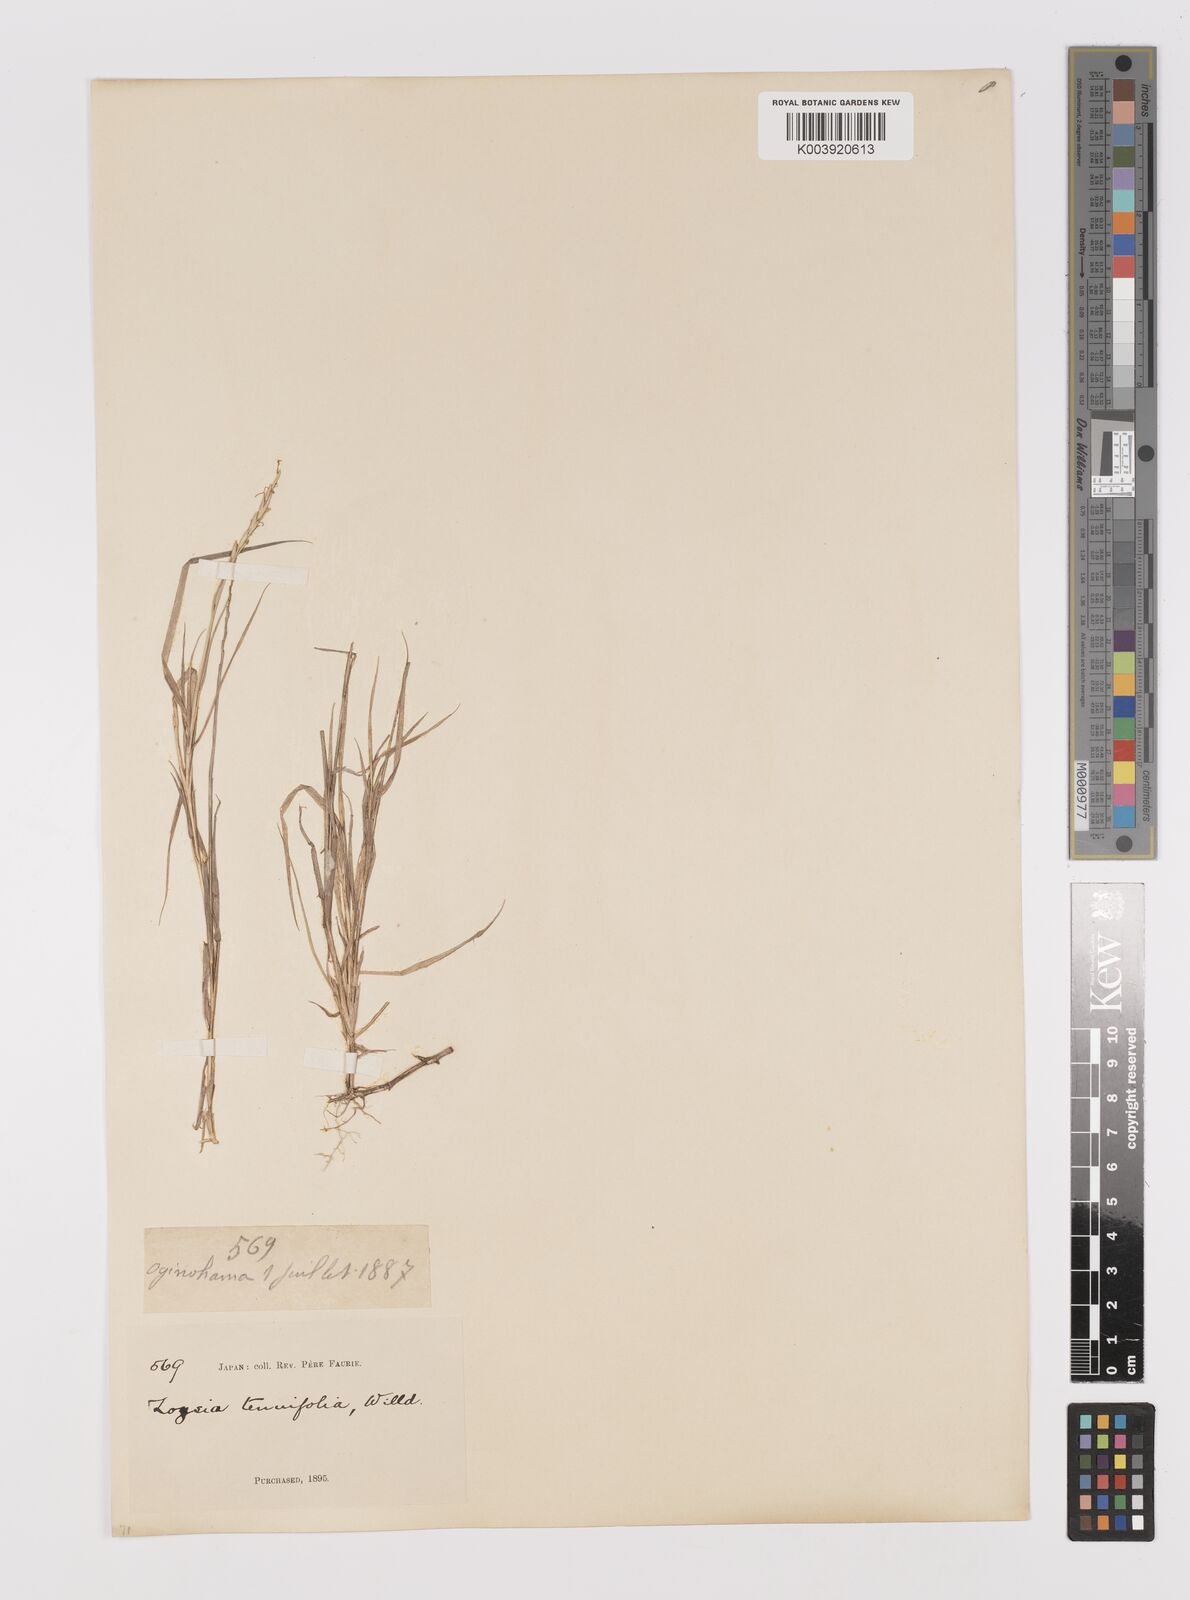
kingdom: Plantae
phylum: Tracheophyta
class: Liliopsida
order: Poales
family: Poaceae
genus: Zoysia
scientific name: Zoysia sinica
